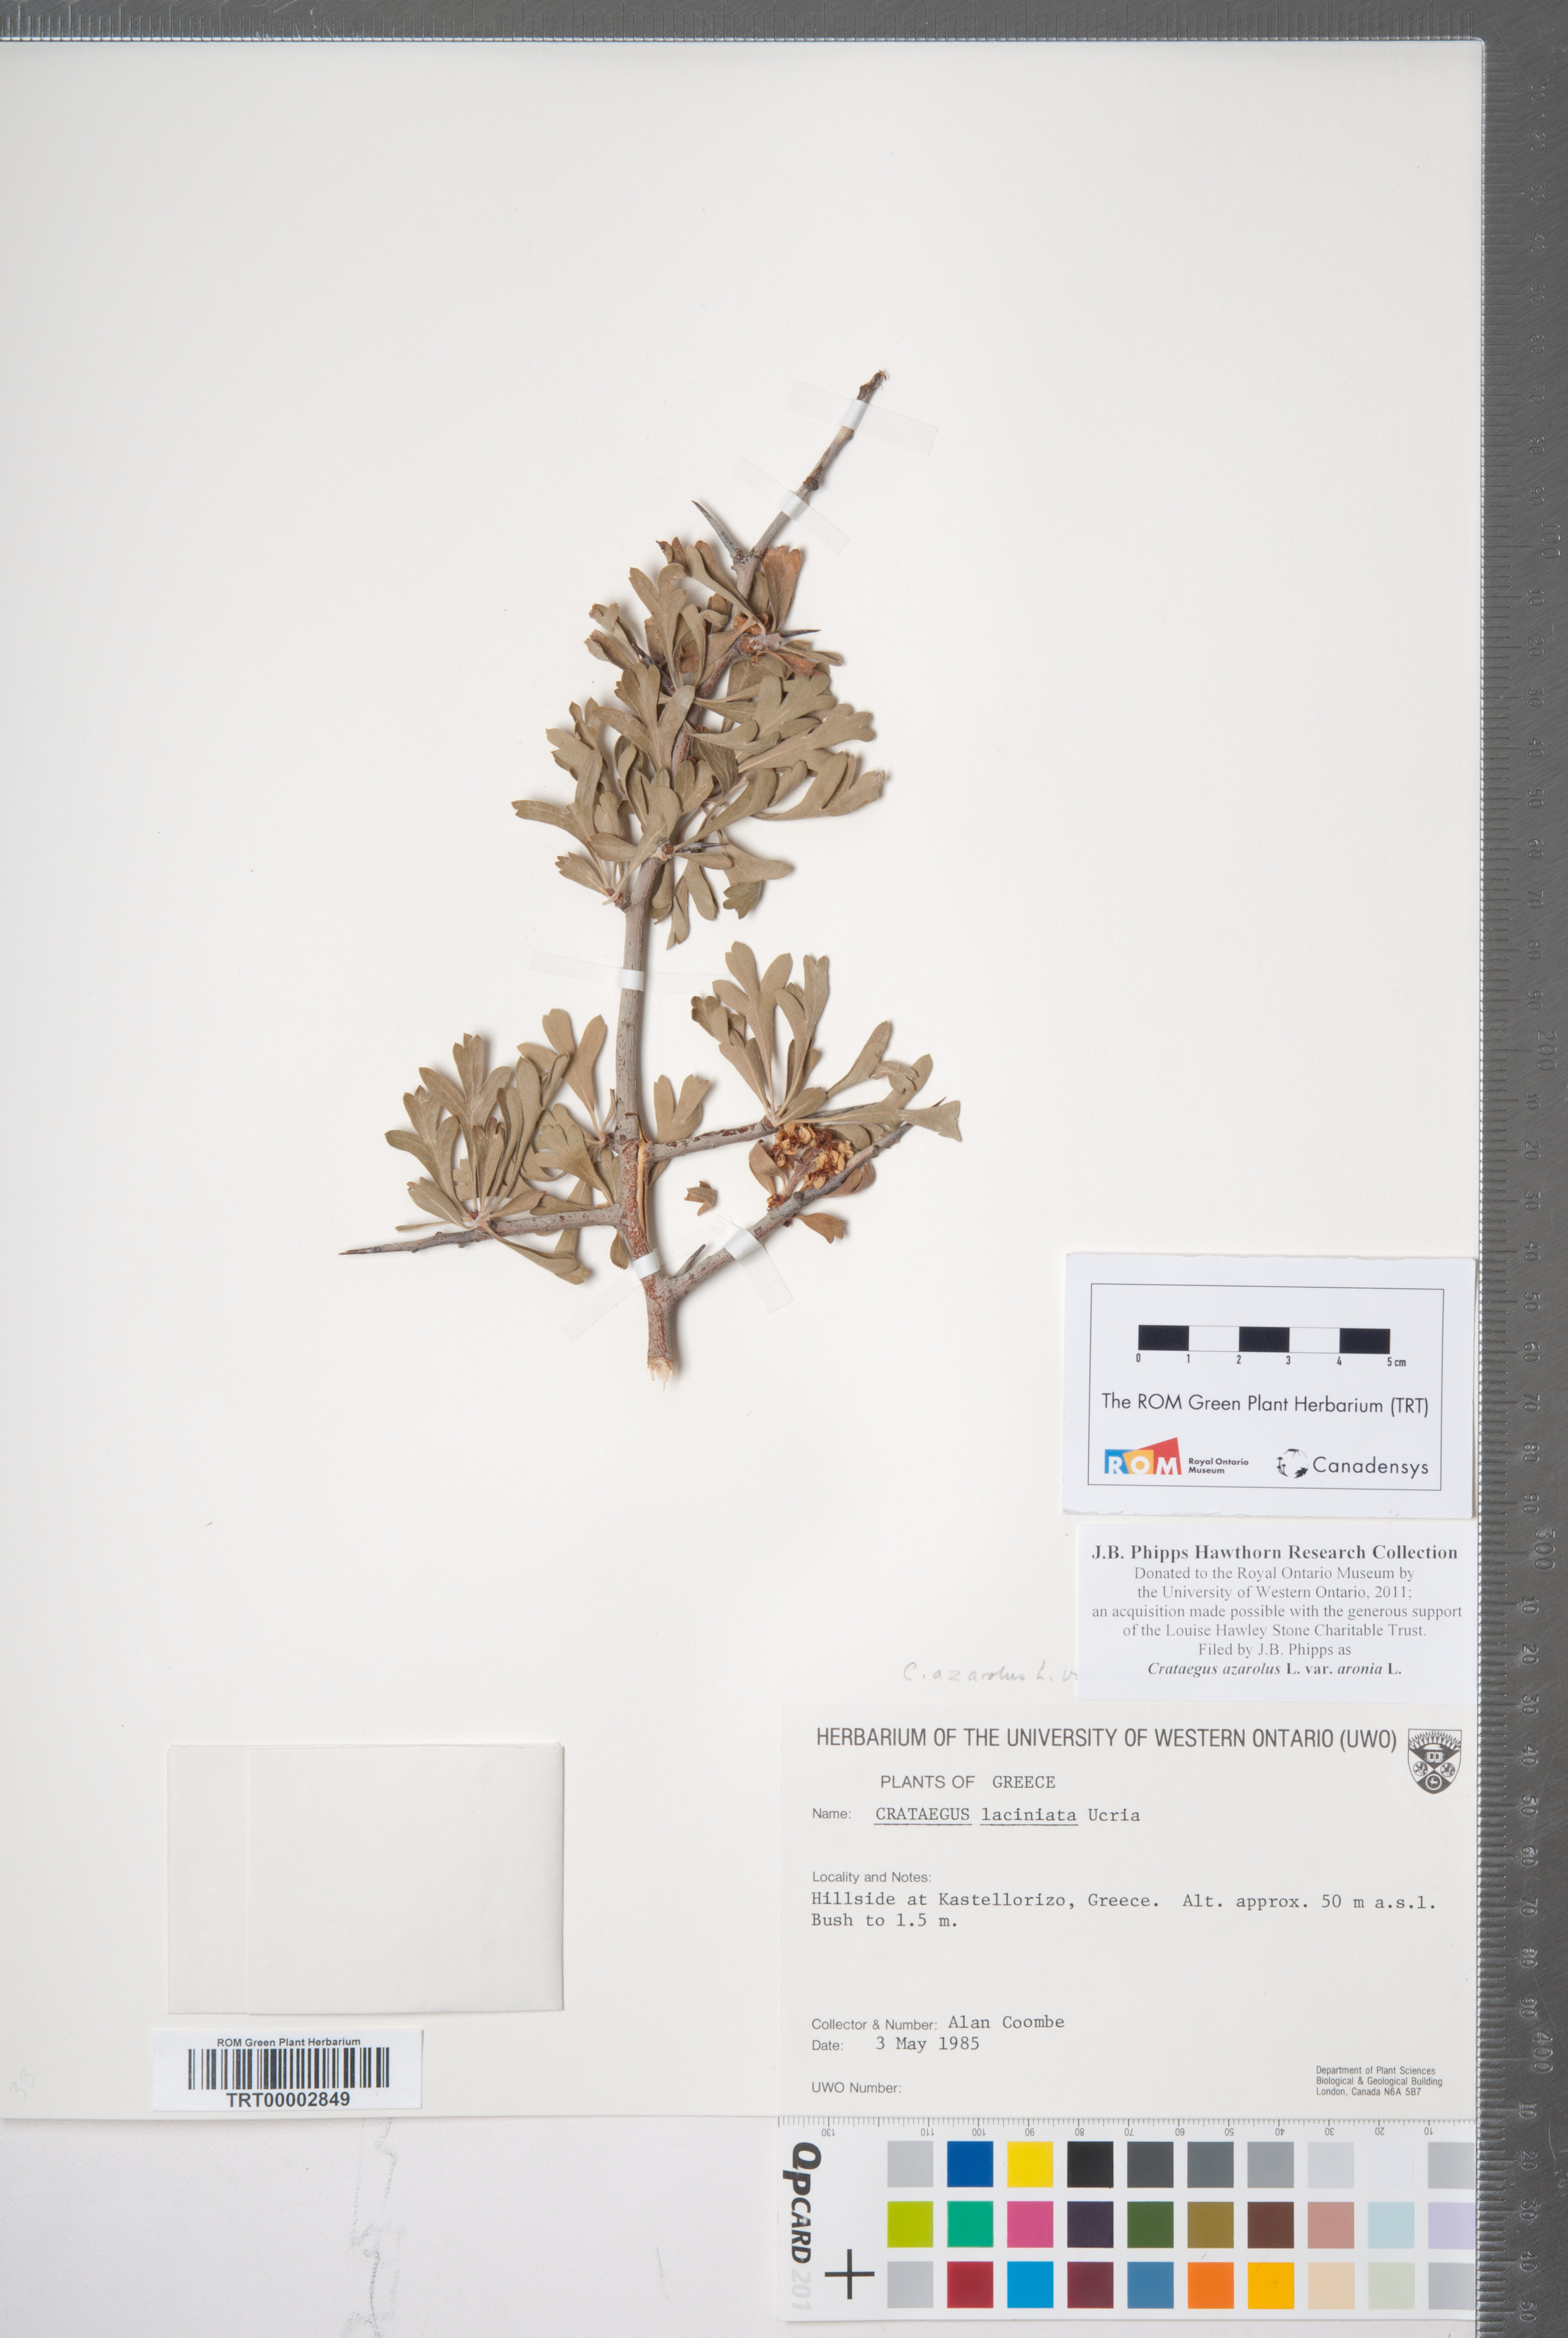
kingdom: Plantae
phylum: Tracheophyta
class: Magnoliopsida
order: Rosales
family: Rosaceae
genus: Crataegus
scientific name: Crataegus azarolus
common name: Azarole
